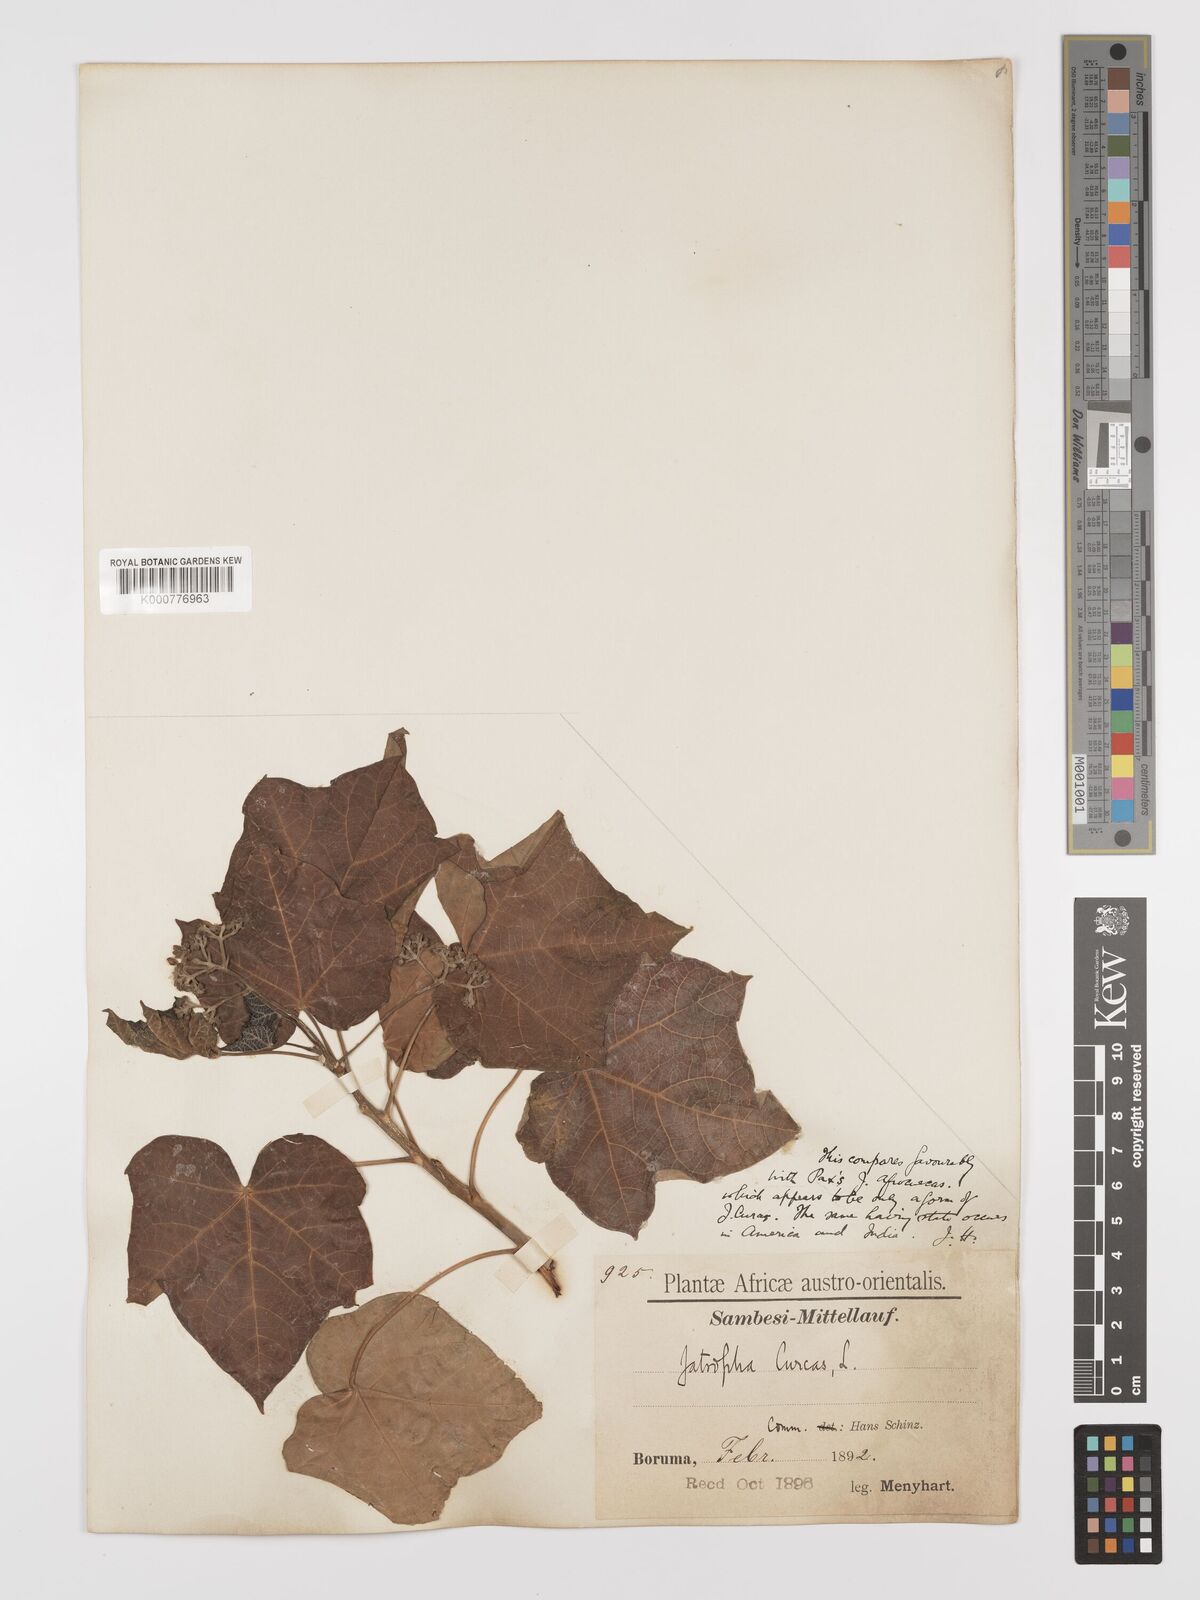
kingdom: Plantae
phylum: Tracheophyta
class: Magnoliopsida
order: Malpighiales
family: Euphorbiaceae
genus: Jatropha
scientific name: Jatropha curcas
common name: Barbados nut
